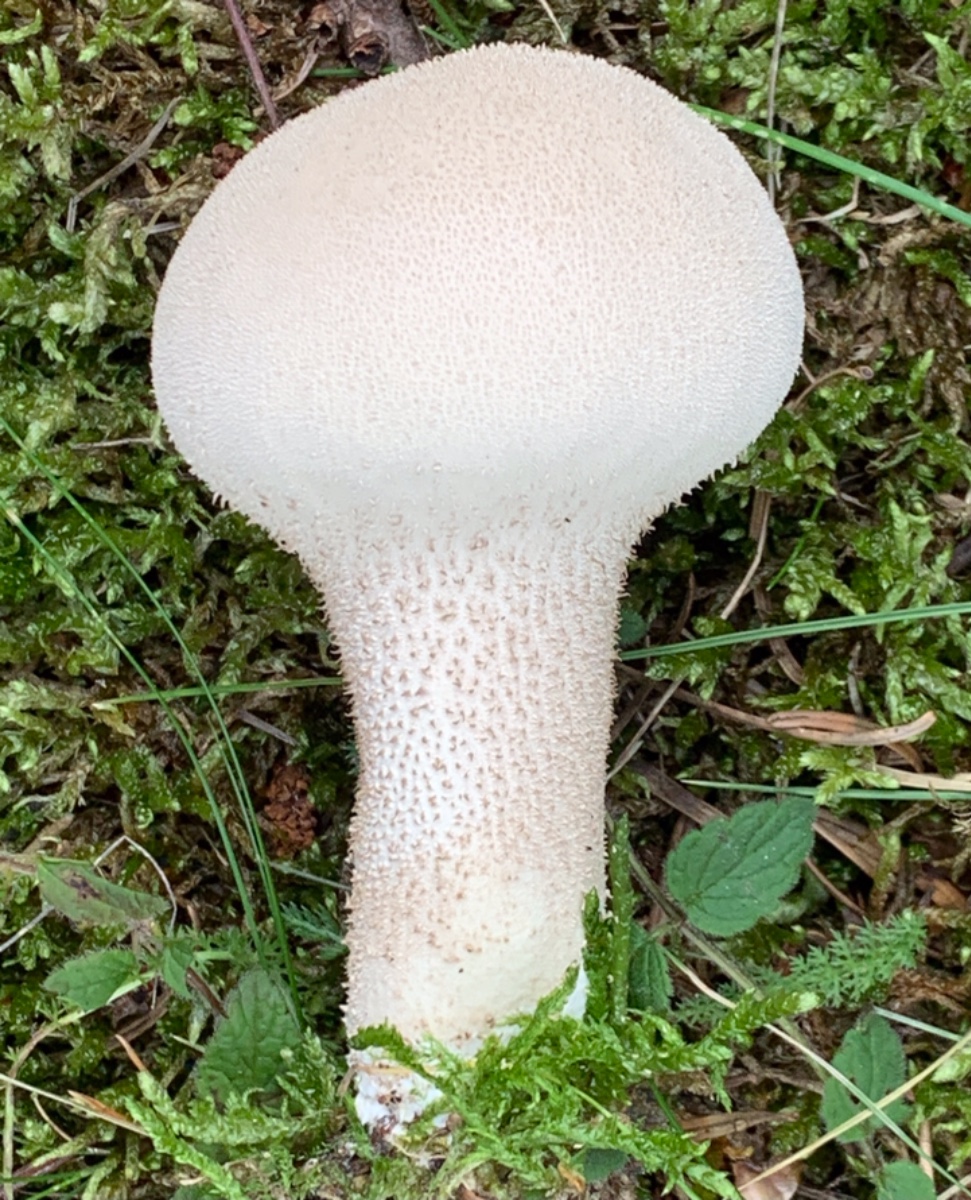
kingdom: Fungi
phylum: Basidiomycota
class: Agaricomycetes
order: Agaricales
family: Lycoperdaceae
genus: Lycoperdon
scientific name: Lycoperdon excipuliforme
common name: højstokket støvbold
